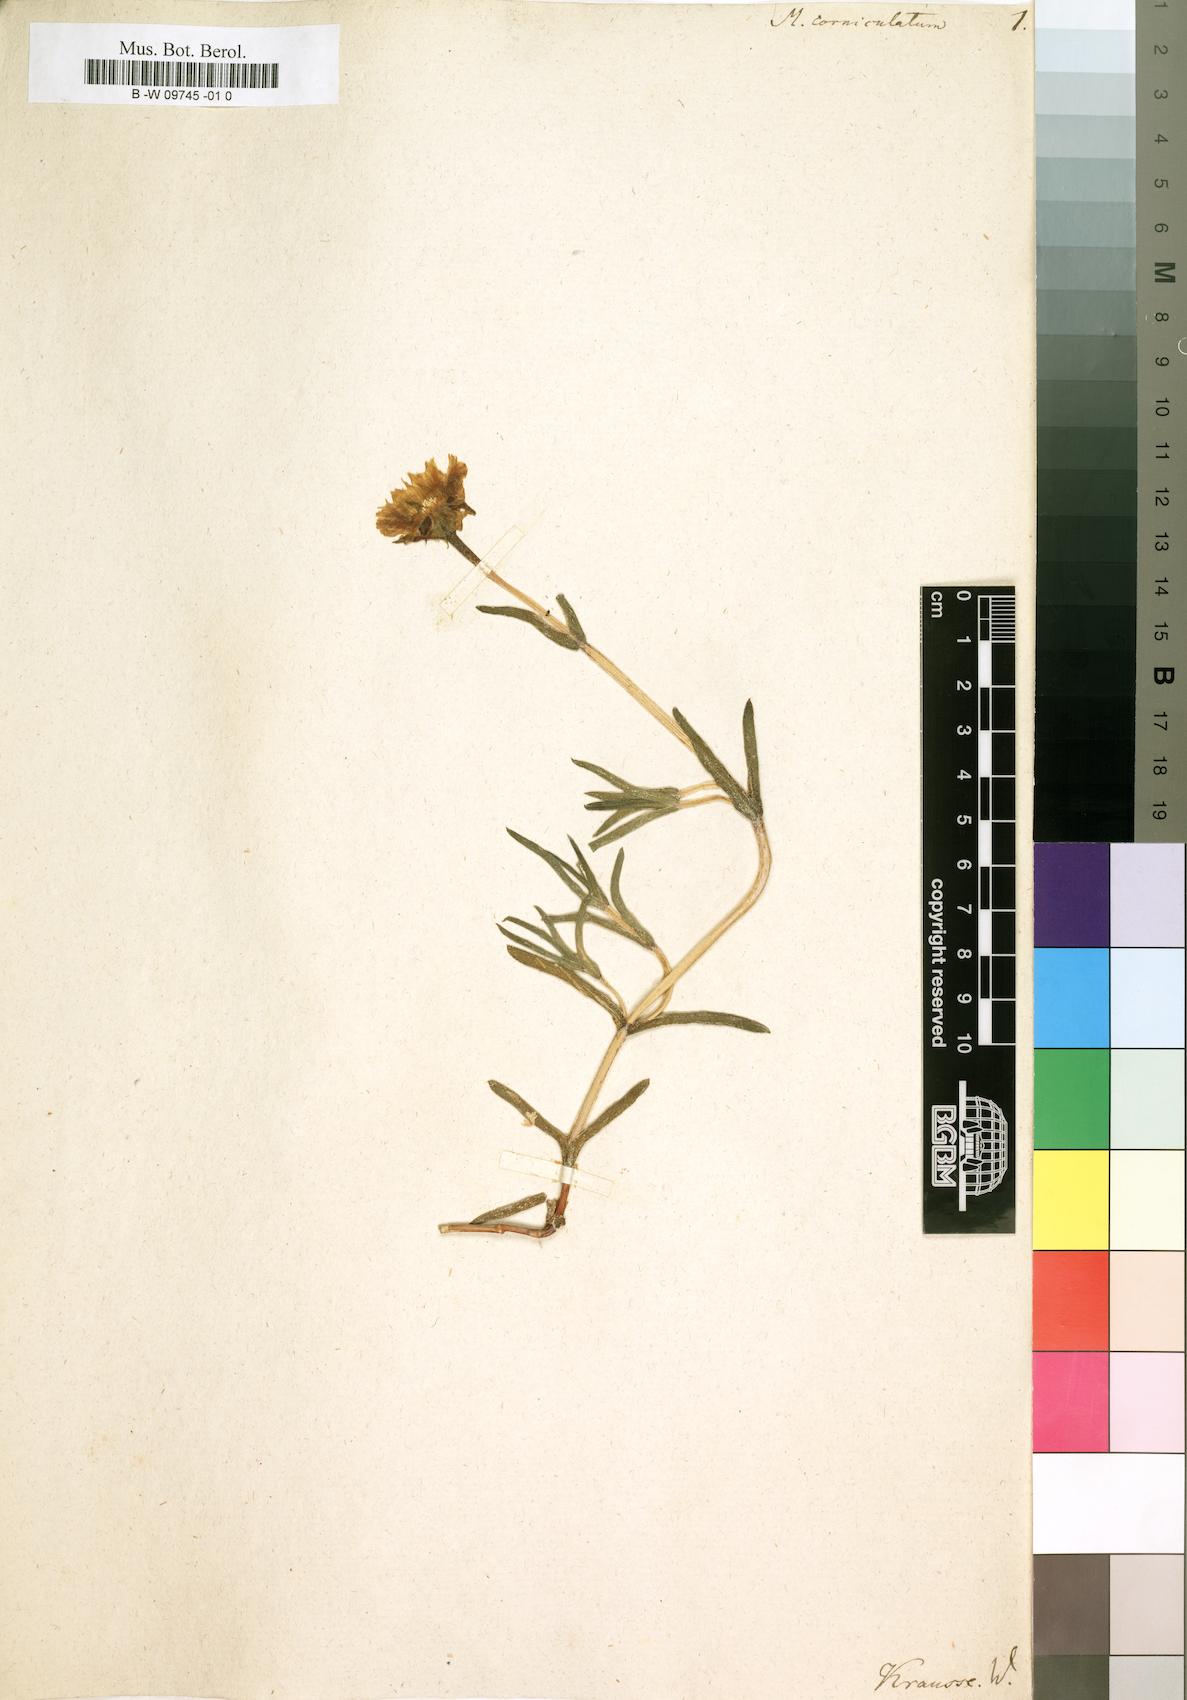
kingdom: Plantae
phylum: Tracheophyta
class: Magnoliopsida
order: Caryophyllales
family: Aizoaceae
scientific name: Aizoaceae
